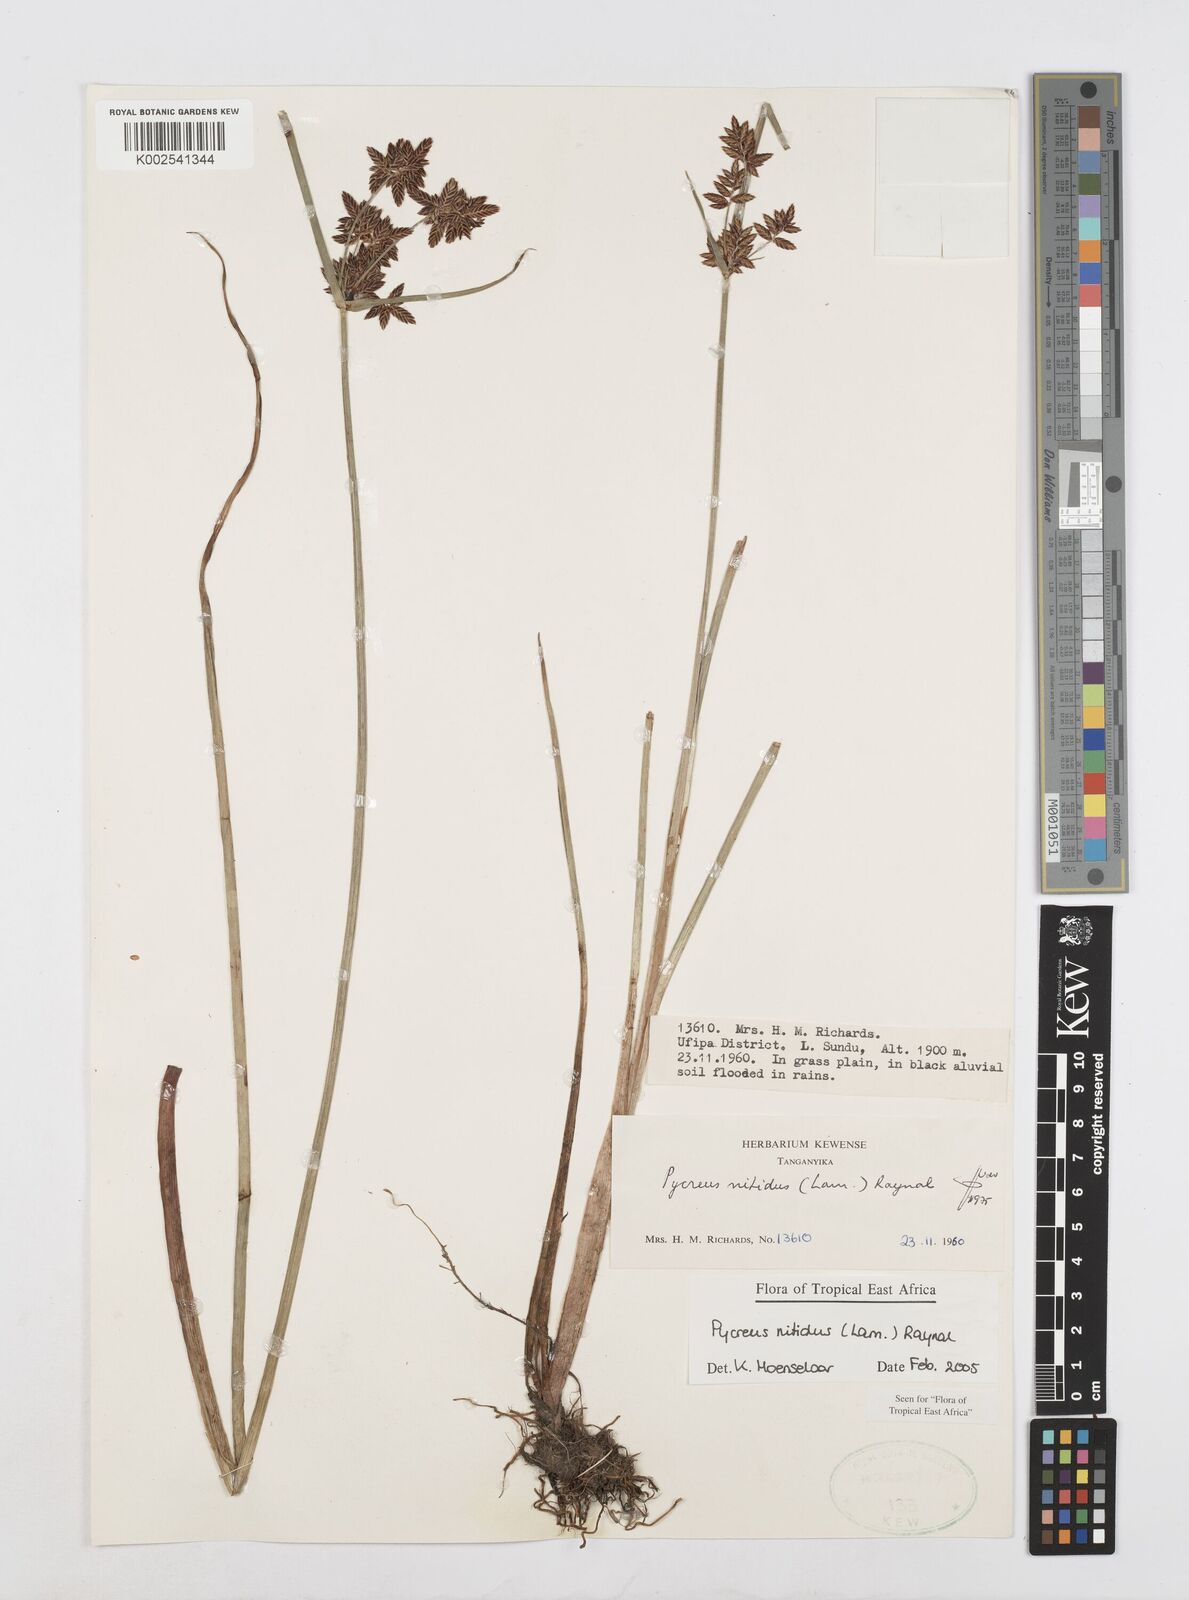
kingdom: Plantae
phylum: Tracheophyta
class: Liliopsida
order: Poales
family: Cyperaceae
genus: Cyperus
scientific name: Cyperus nitidus
